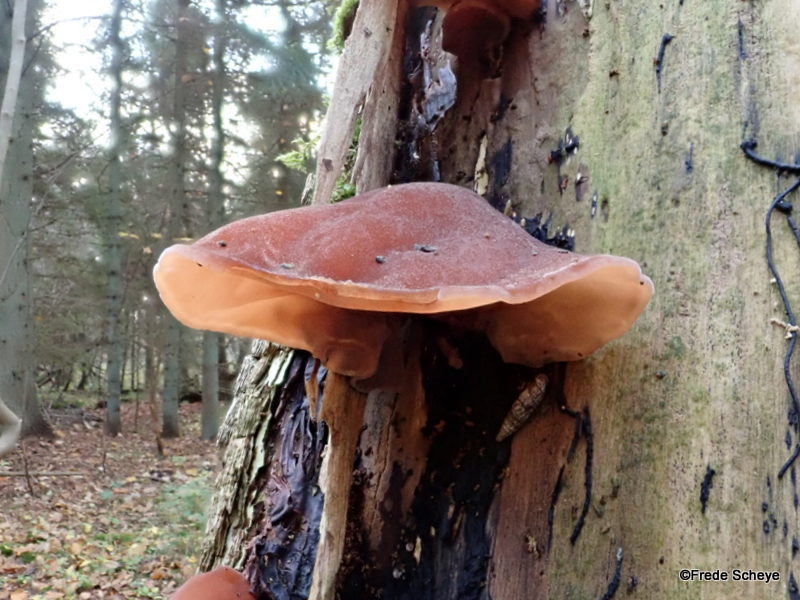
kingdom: Fungi
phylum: Basidiomycota
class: Agaricomycetes
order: Auriculariales
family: Auriculariaceae
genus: Auricularia
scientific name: Auricularia auricula-judae
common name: almindelig judasøre
